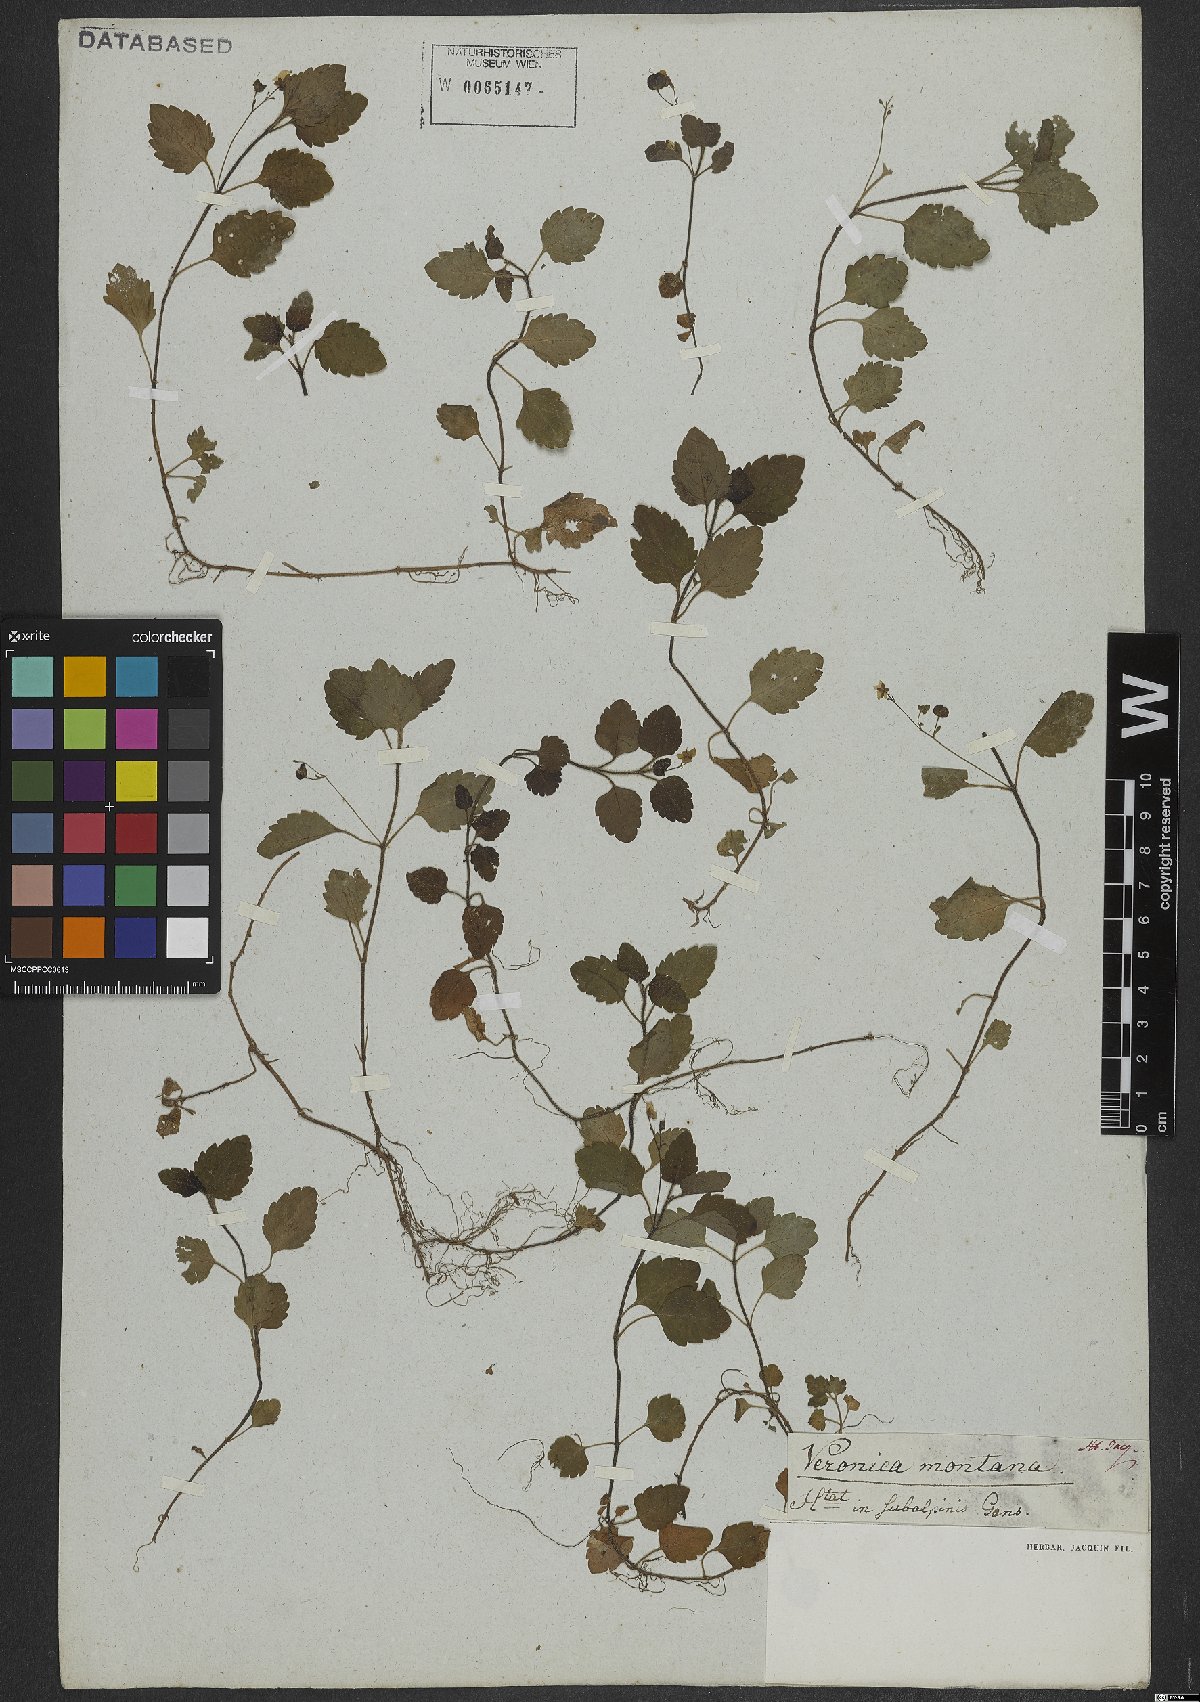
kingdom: Plantae
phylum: Tracheophyta
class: Magnoliopsida
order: Lamiales
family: Plantaginaceae
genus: Veronica
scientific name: Veronica montana
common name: Wood speedwell
